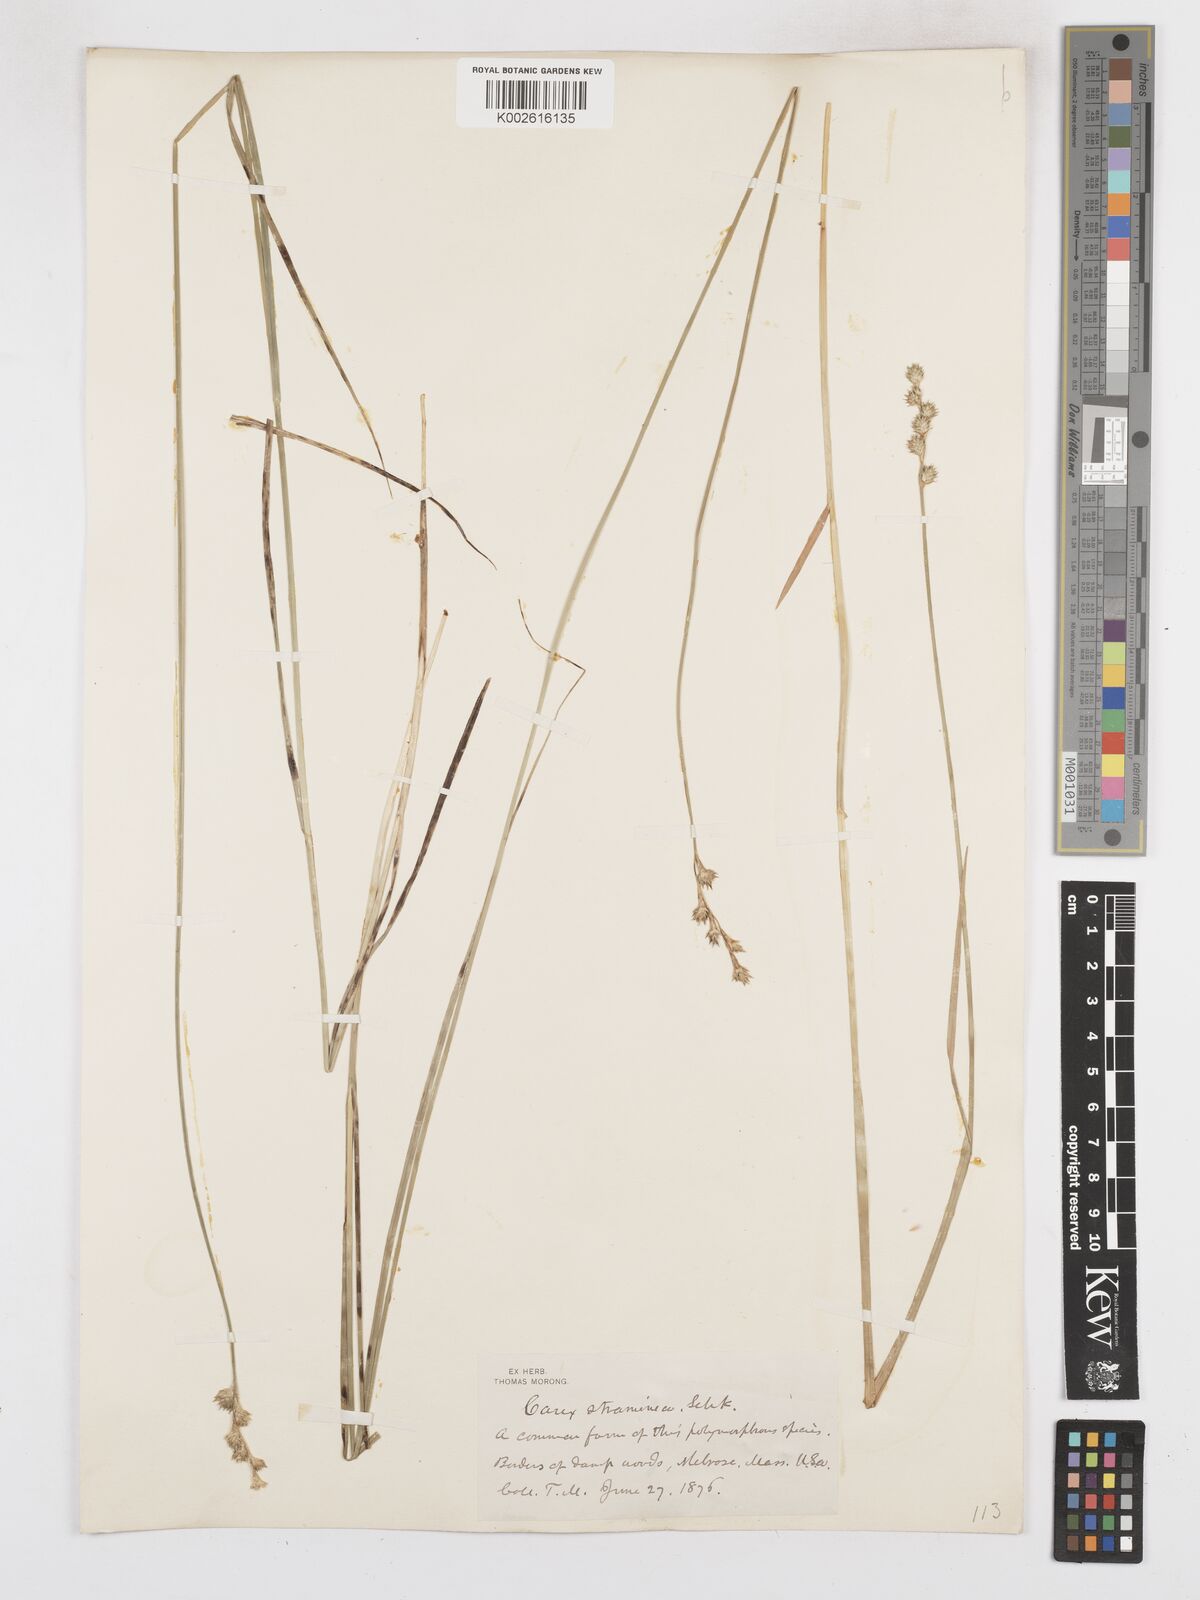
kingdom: Plantae
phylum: Tracheophyta
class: Liliopsida
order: Poales
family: Cyperaceae
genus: Carex
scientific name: Carex brevior
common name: Brevior sedge
